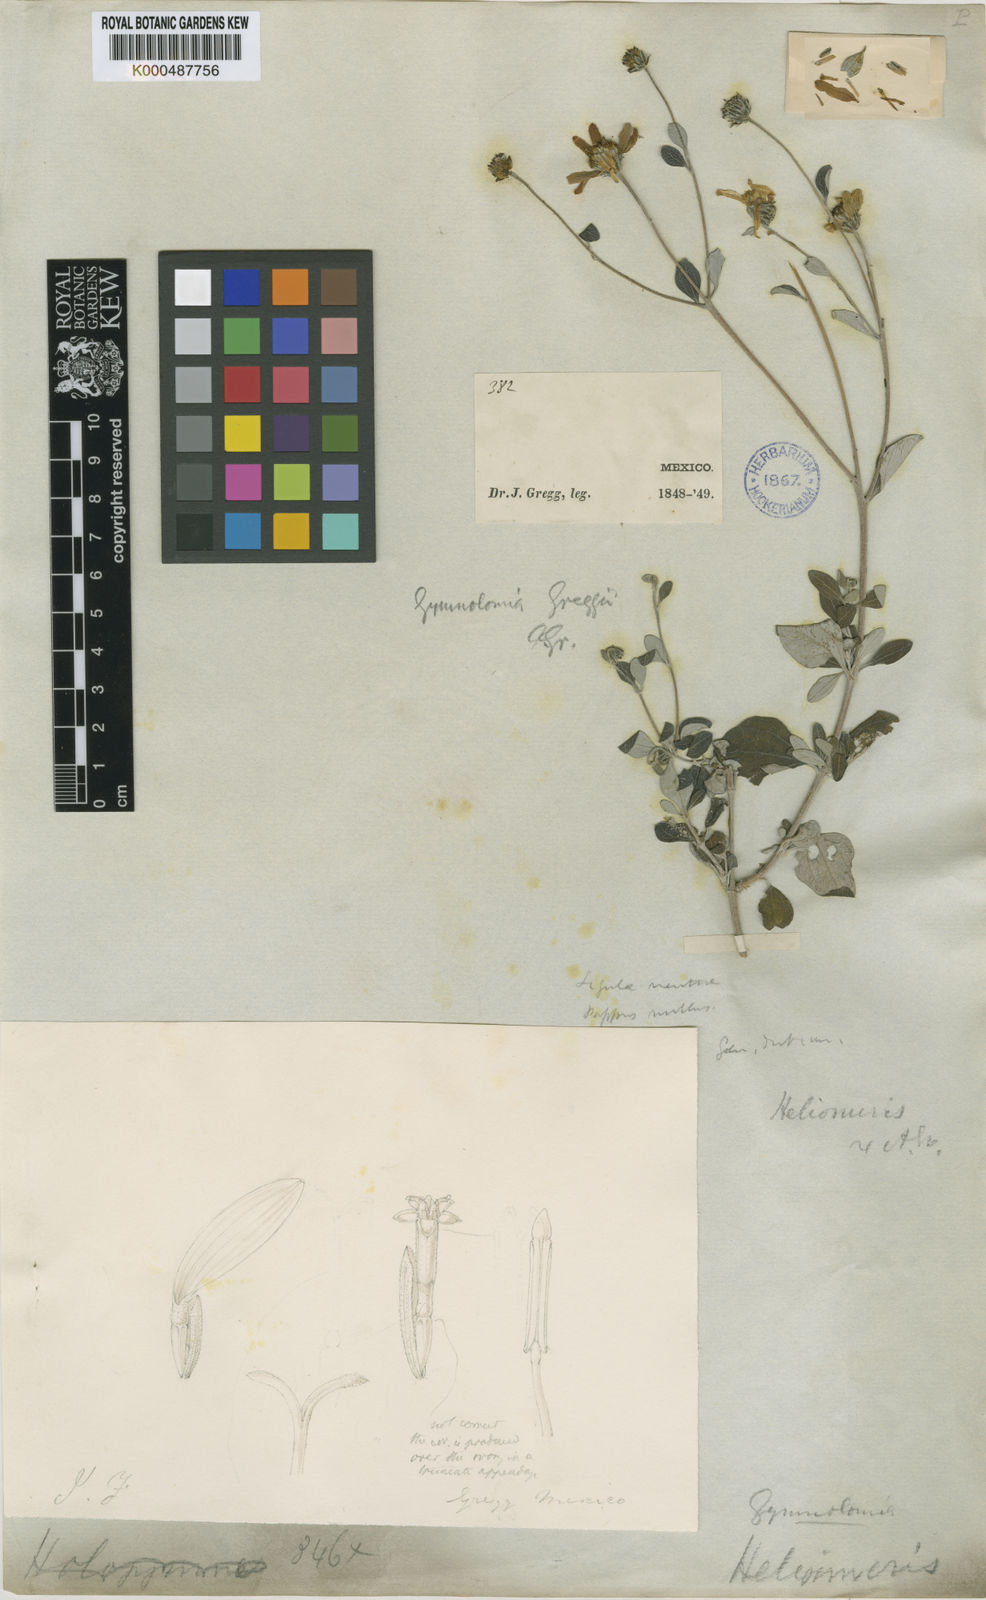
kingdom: Plantae
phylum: Tracheophyta
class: Magnoliopsida
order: Asterales
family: Asteraceae
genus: Calanticaria
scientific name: Calanticaria greggii
